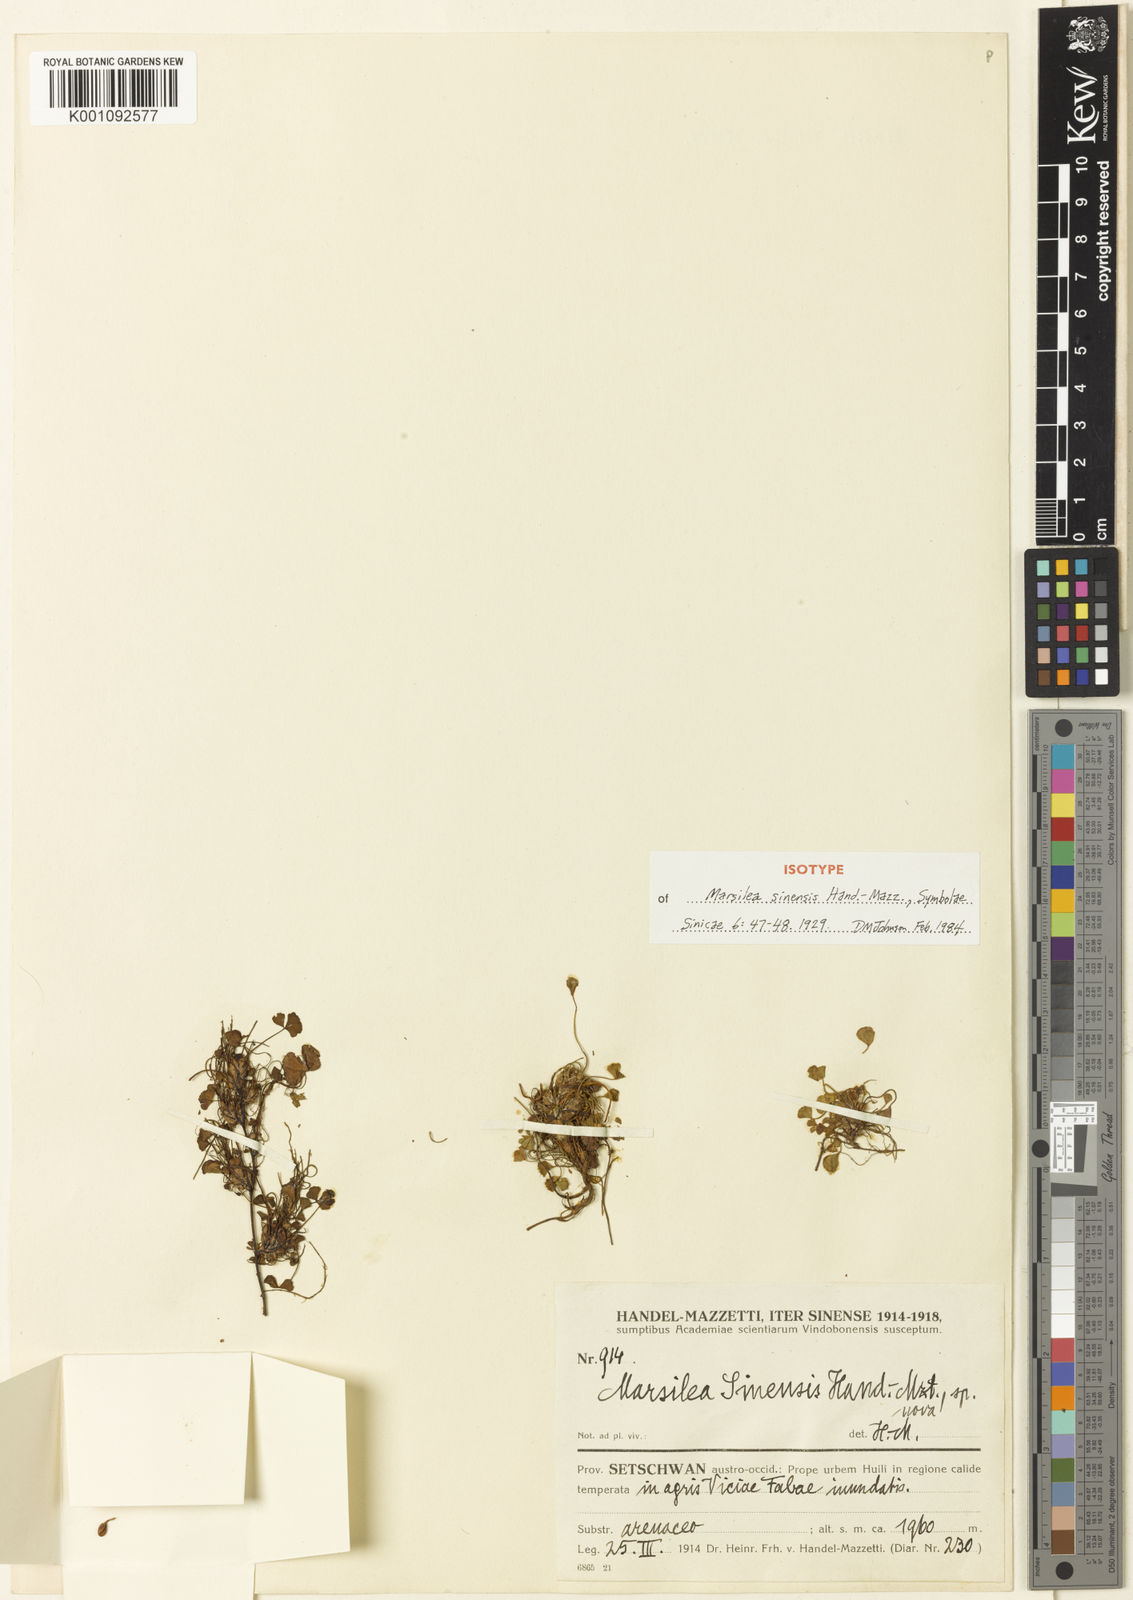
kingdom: Plantae
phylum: Tracheophyta
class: Polypodiopsida
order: Salviniales
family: Marsileaceae
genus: Marsilea
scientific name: Marsilea minuta
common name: Dwarf waterclover
